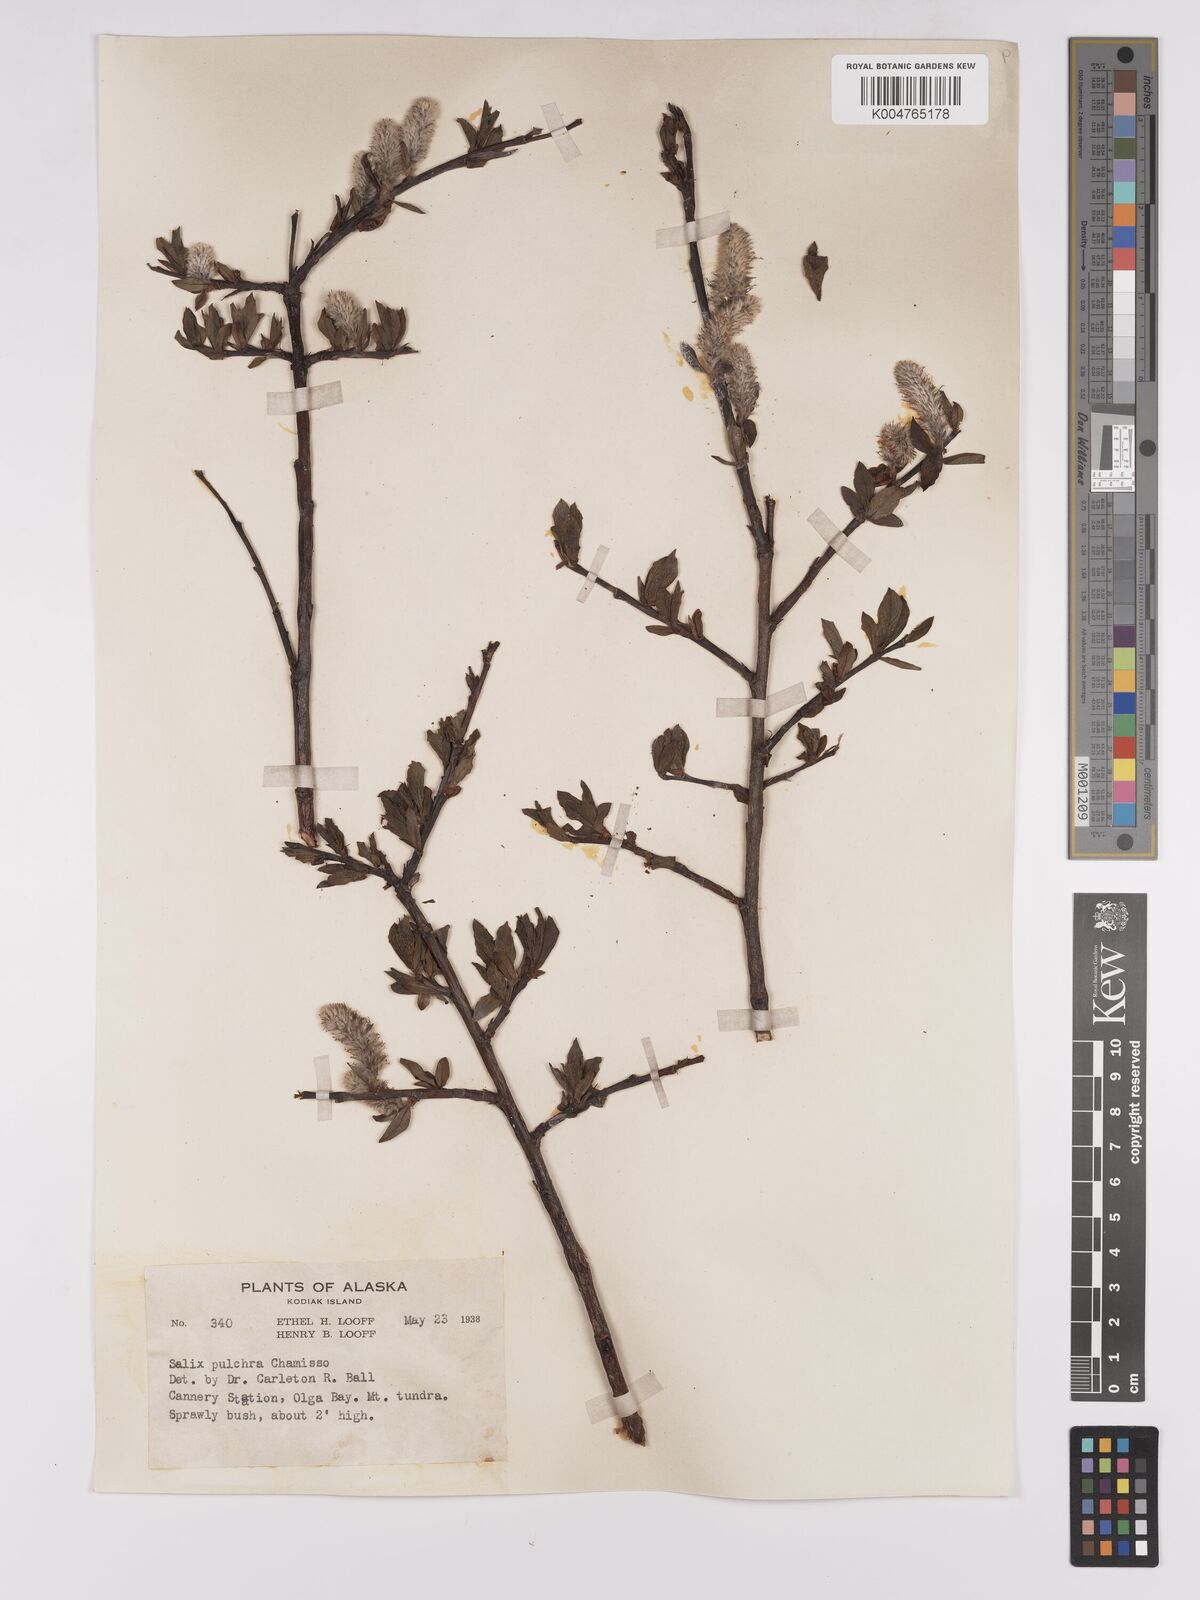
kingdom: Plantae
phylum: Tracheophyta
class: Magnoliopsida
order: Malpighiales
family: Salicaceae
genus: Salix
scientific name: Salix
